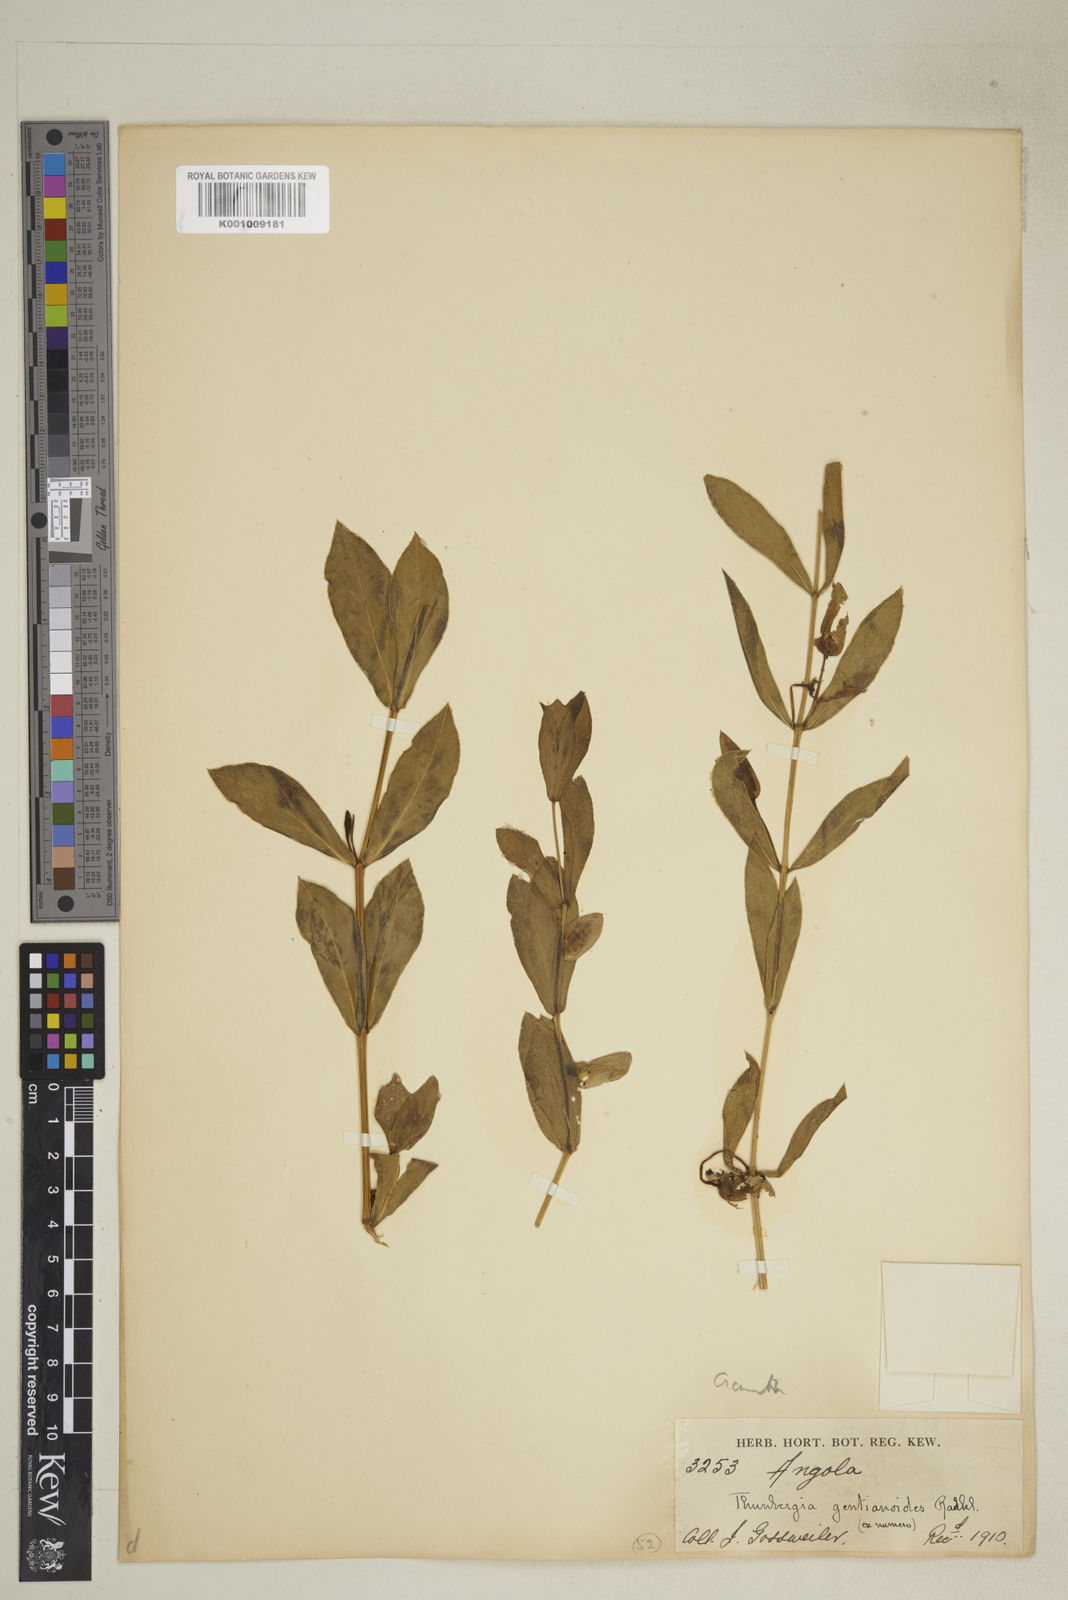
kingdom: Plantae
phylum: Tracheophyta
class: Magnoliopsida
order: Lamiales
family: Acanthaceae
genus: Thunbergia
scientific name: Thunbergia lancifolia
